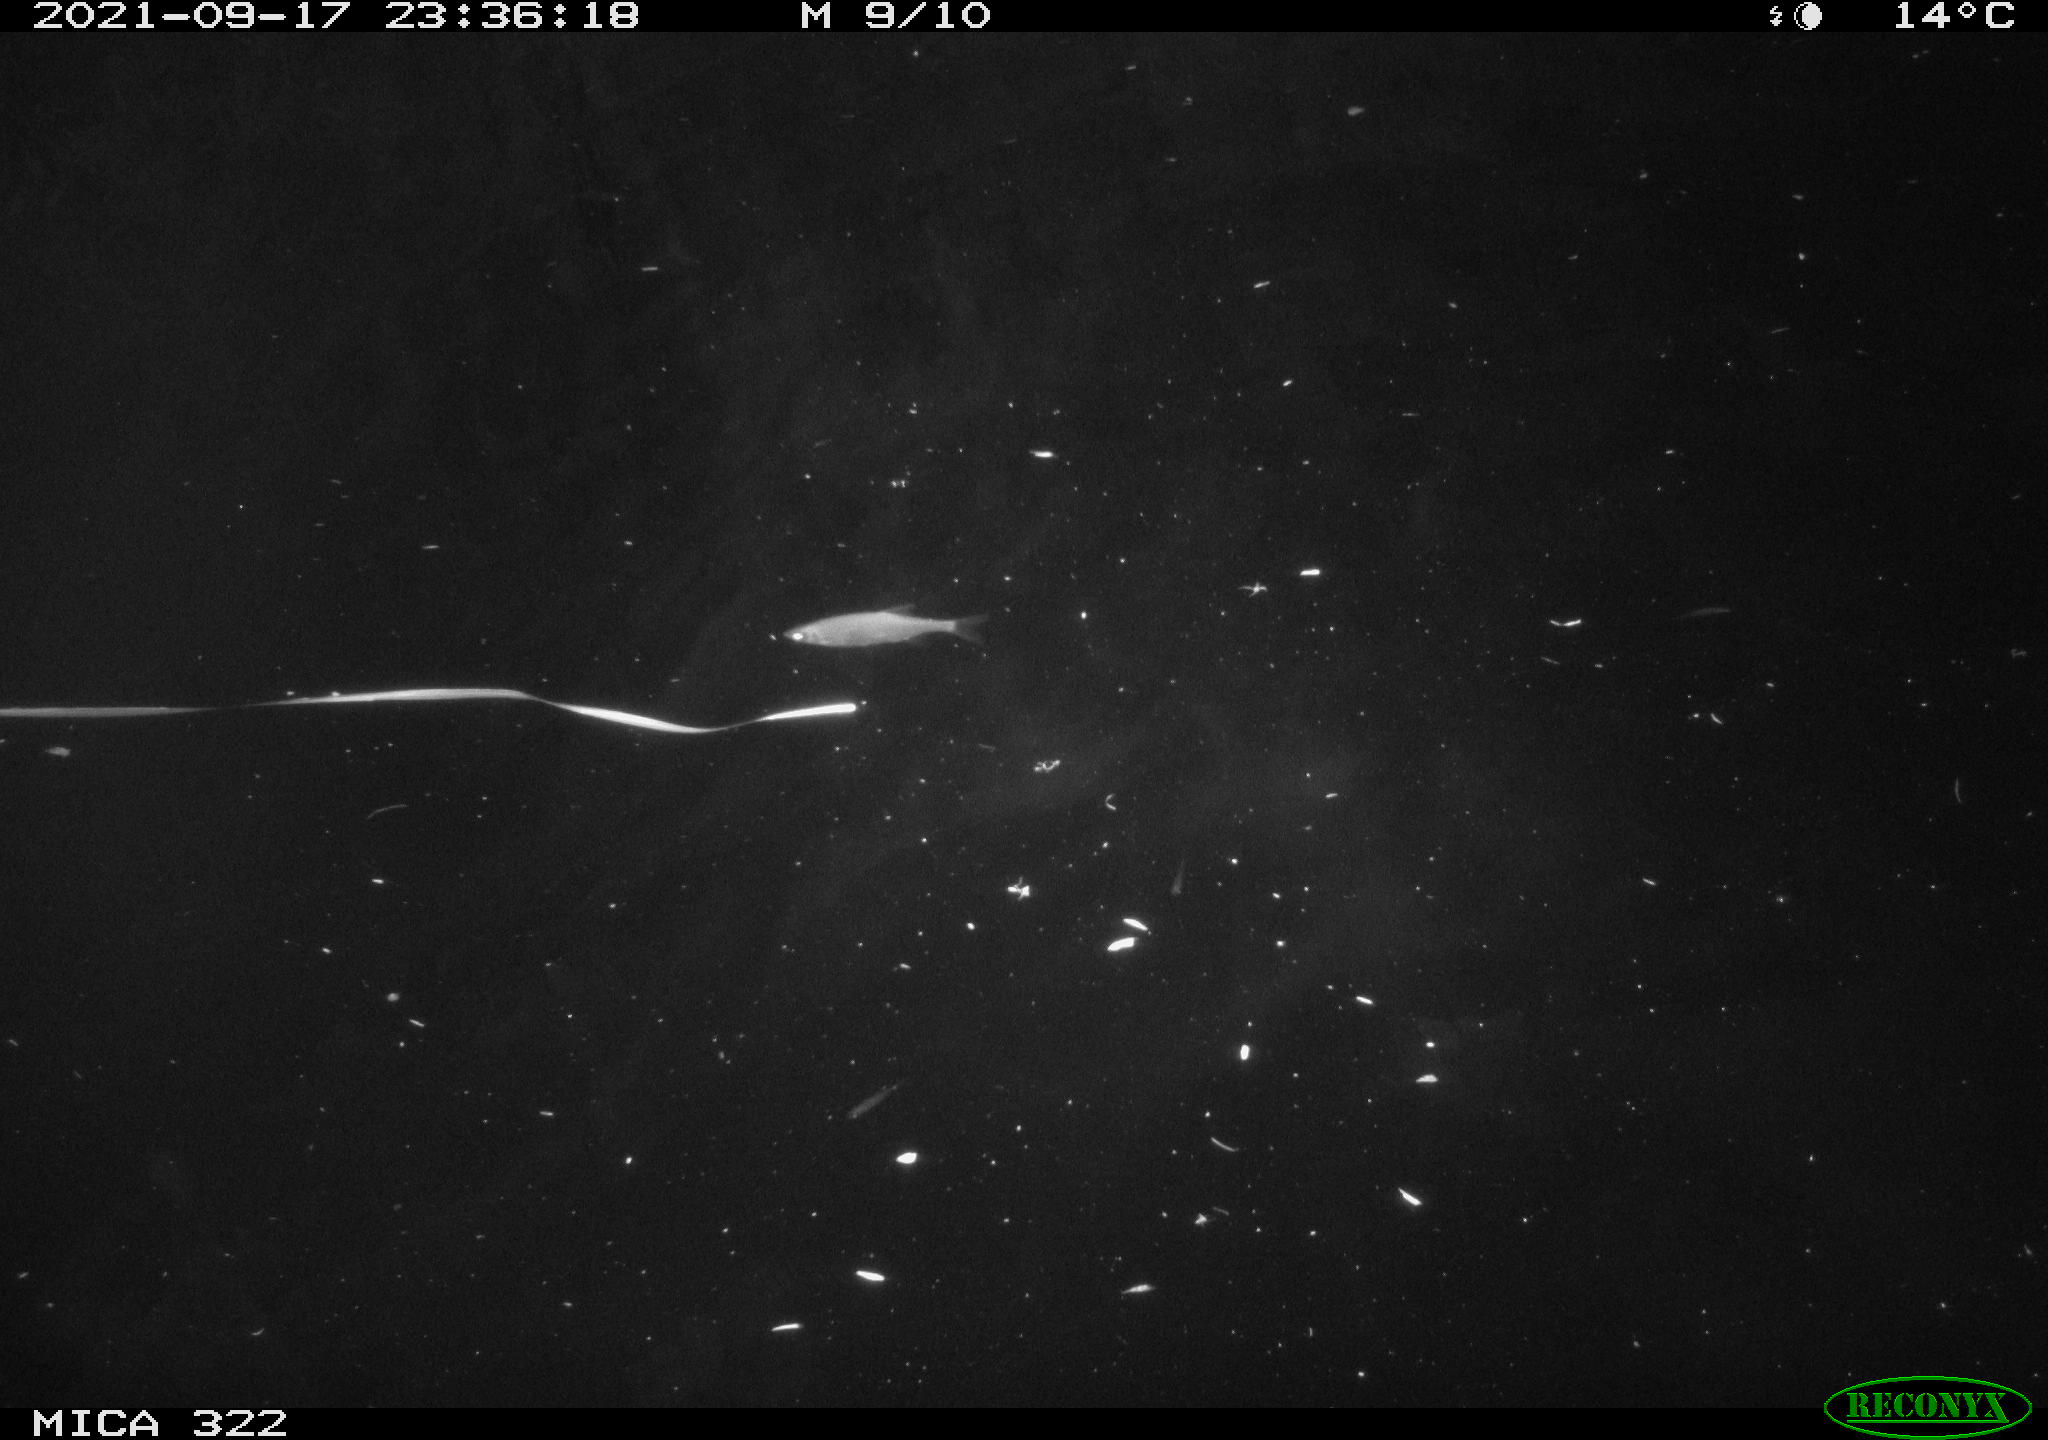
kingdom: Animalia
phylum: Chordata
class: Mammalia
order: Rodentia
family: Muridae
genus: Rattus
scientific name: Rattus norvegicus
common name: Brown rat
